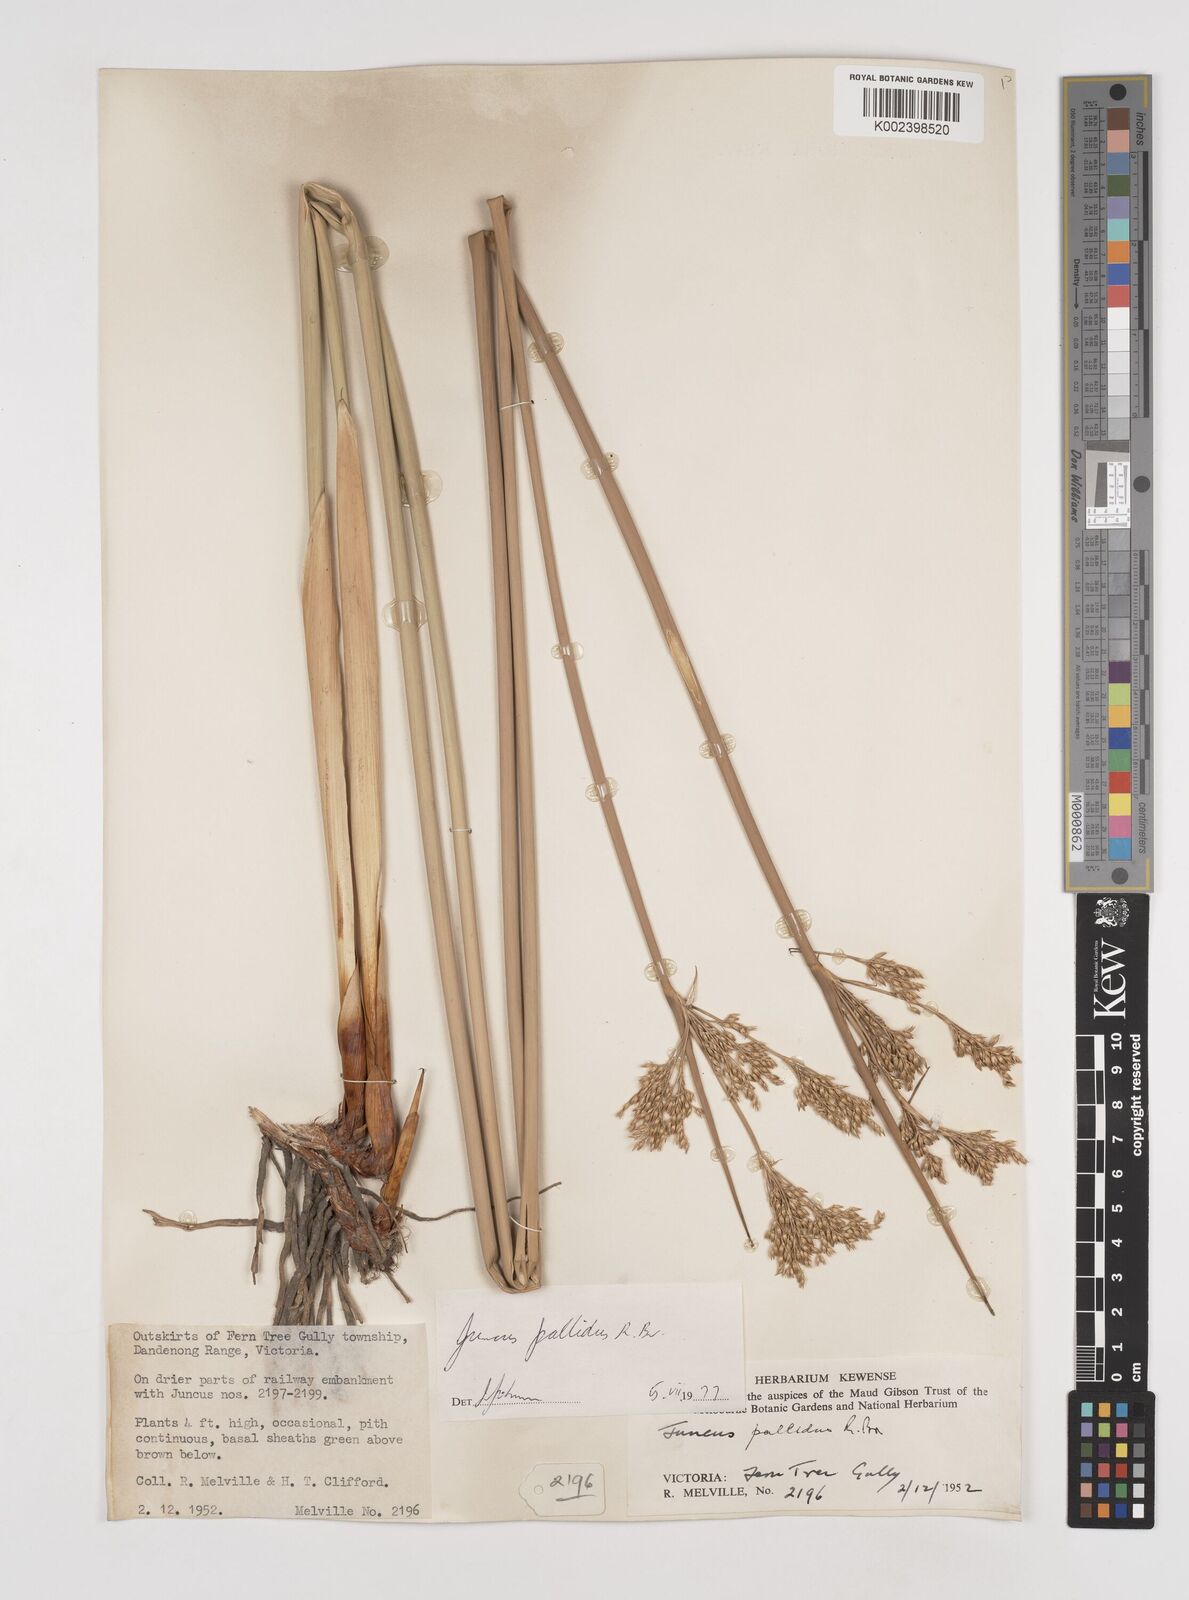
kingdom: Plantae
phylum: Tracheophyta
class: Liliopsida
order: Poales
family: Juncaceae
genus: Juncus
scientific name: Juncus pallidus
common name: Great soft-rush
